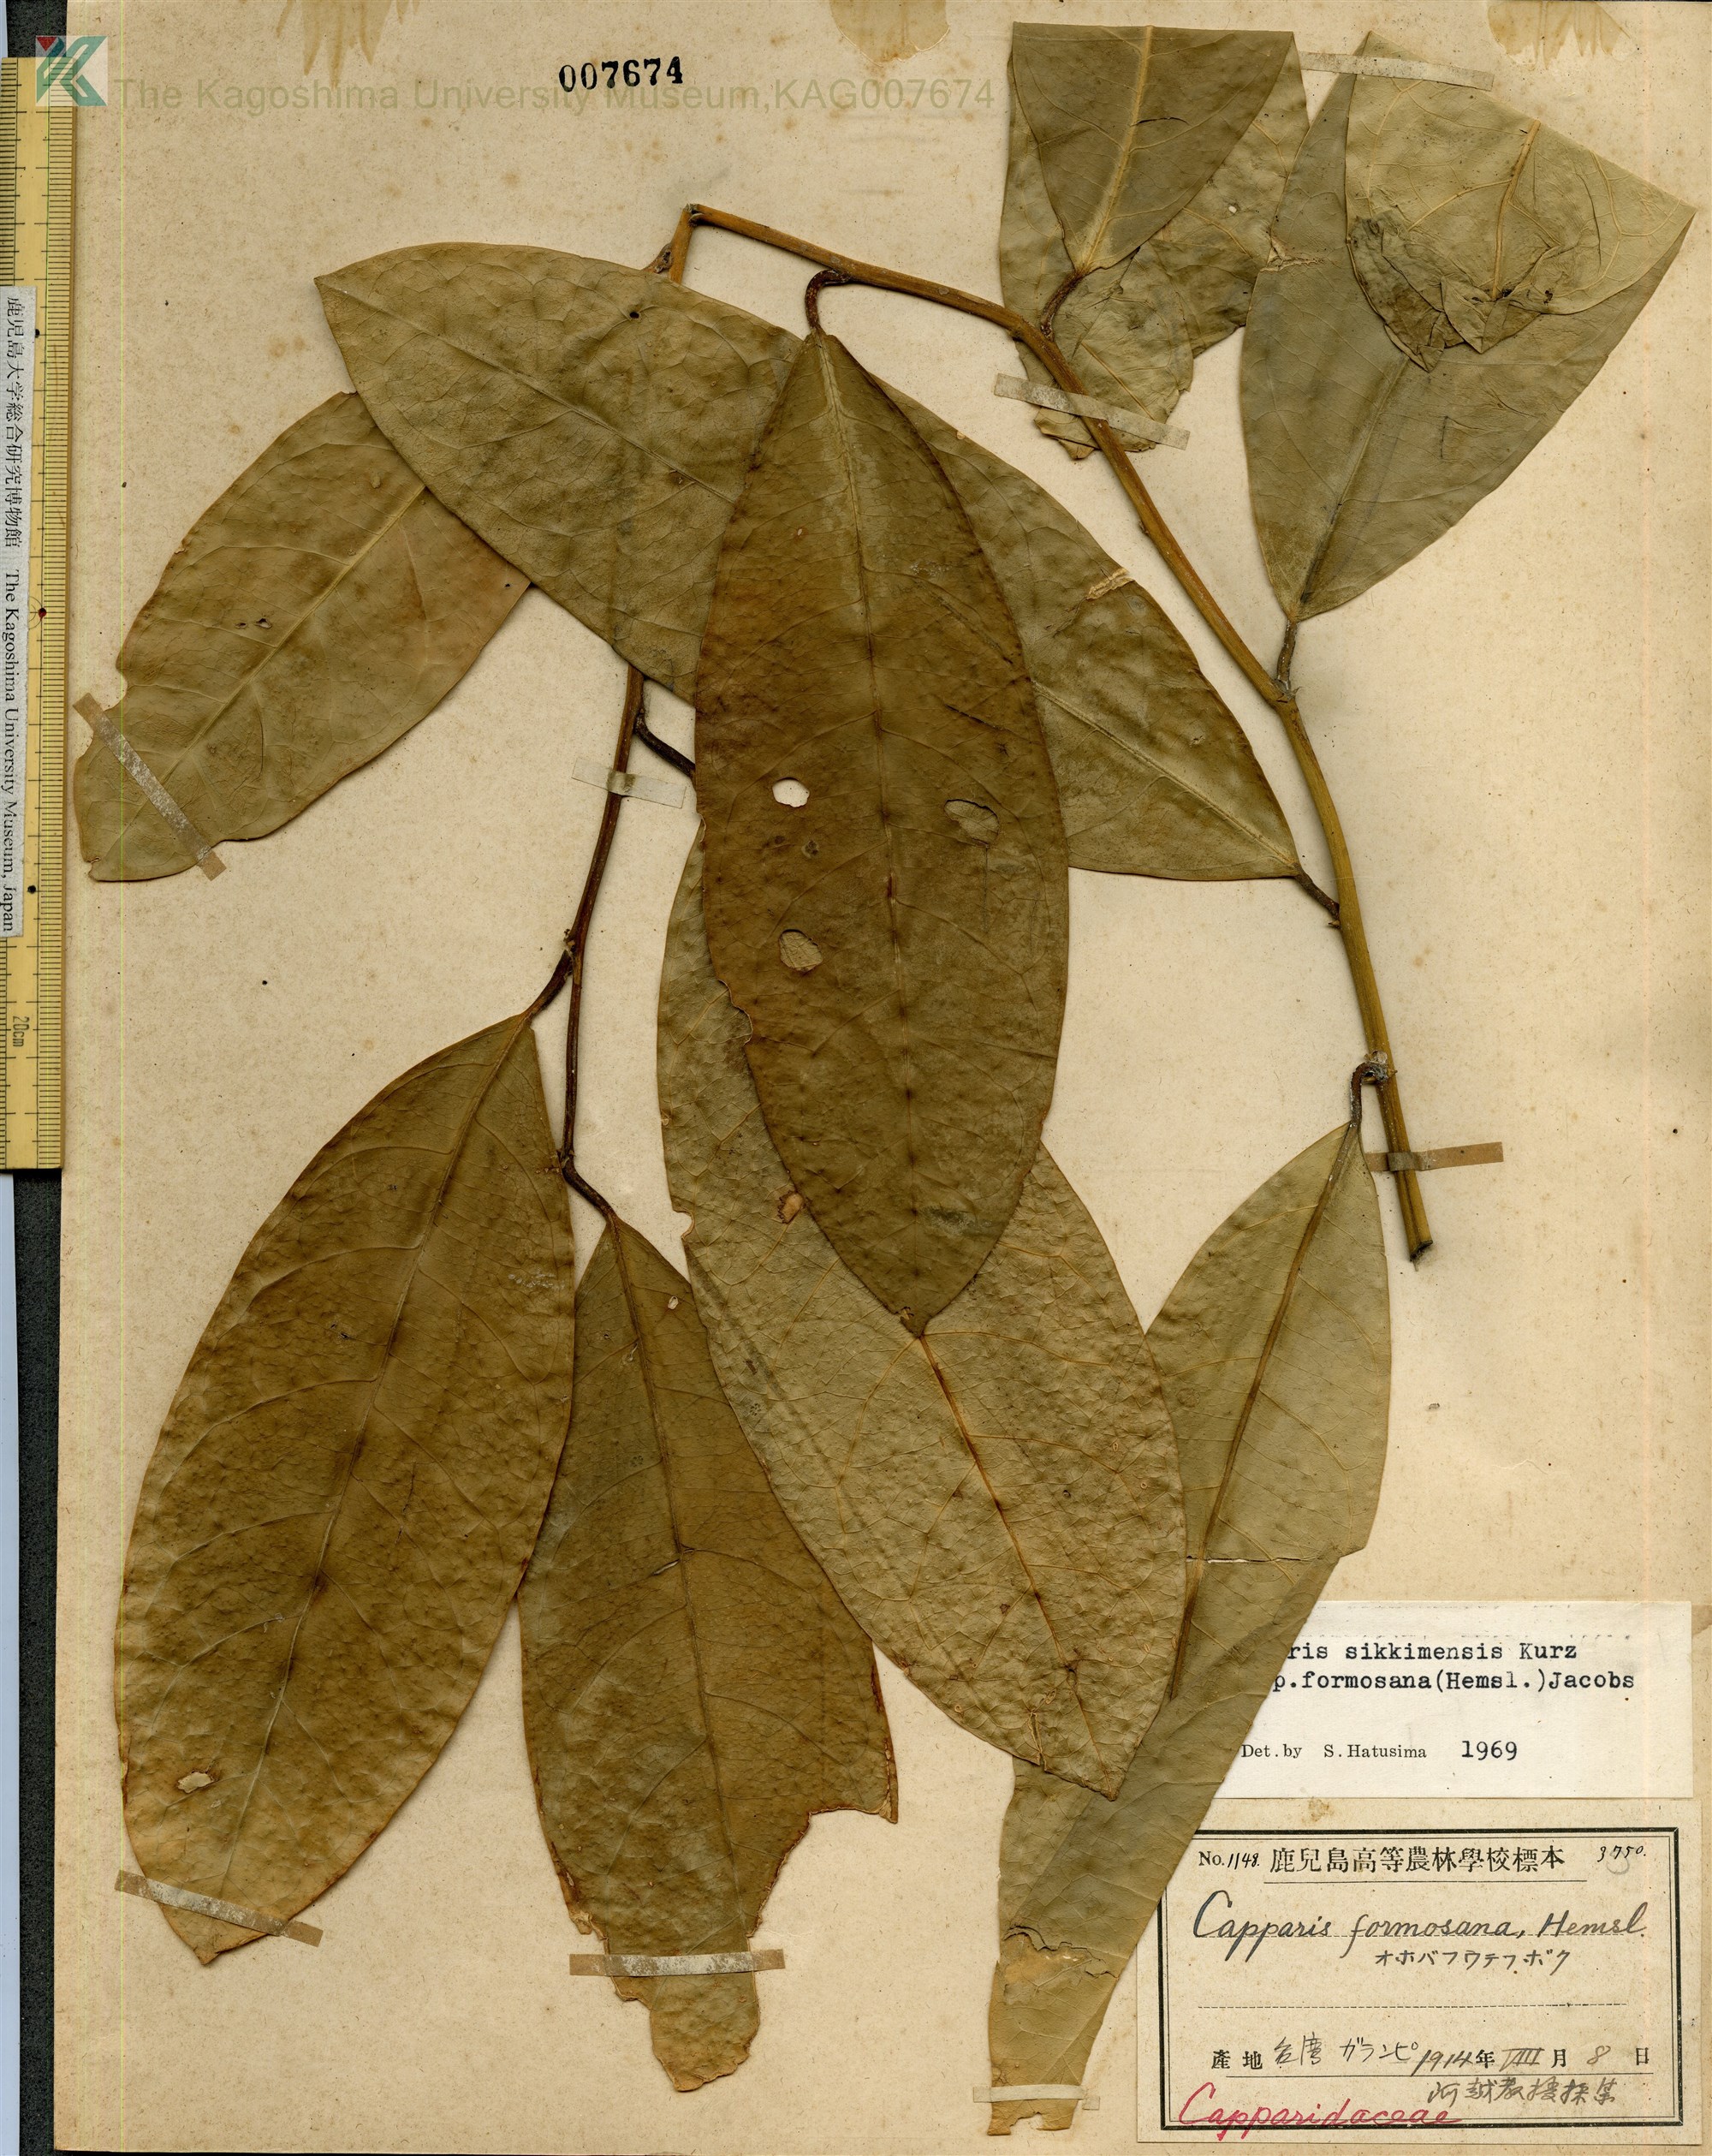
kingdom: Plantae
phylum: Tracheophyta
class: Magnoliopsida
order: Brassicales
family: Capparaceae
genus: Capparis
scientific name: Capparis sikkimensis
